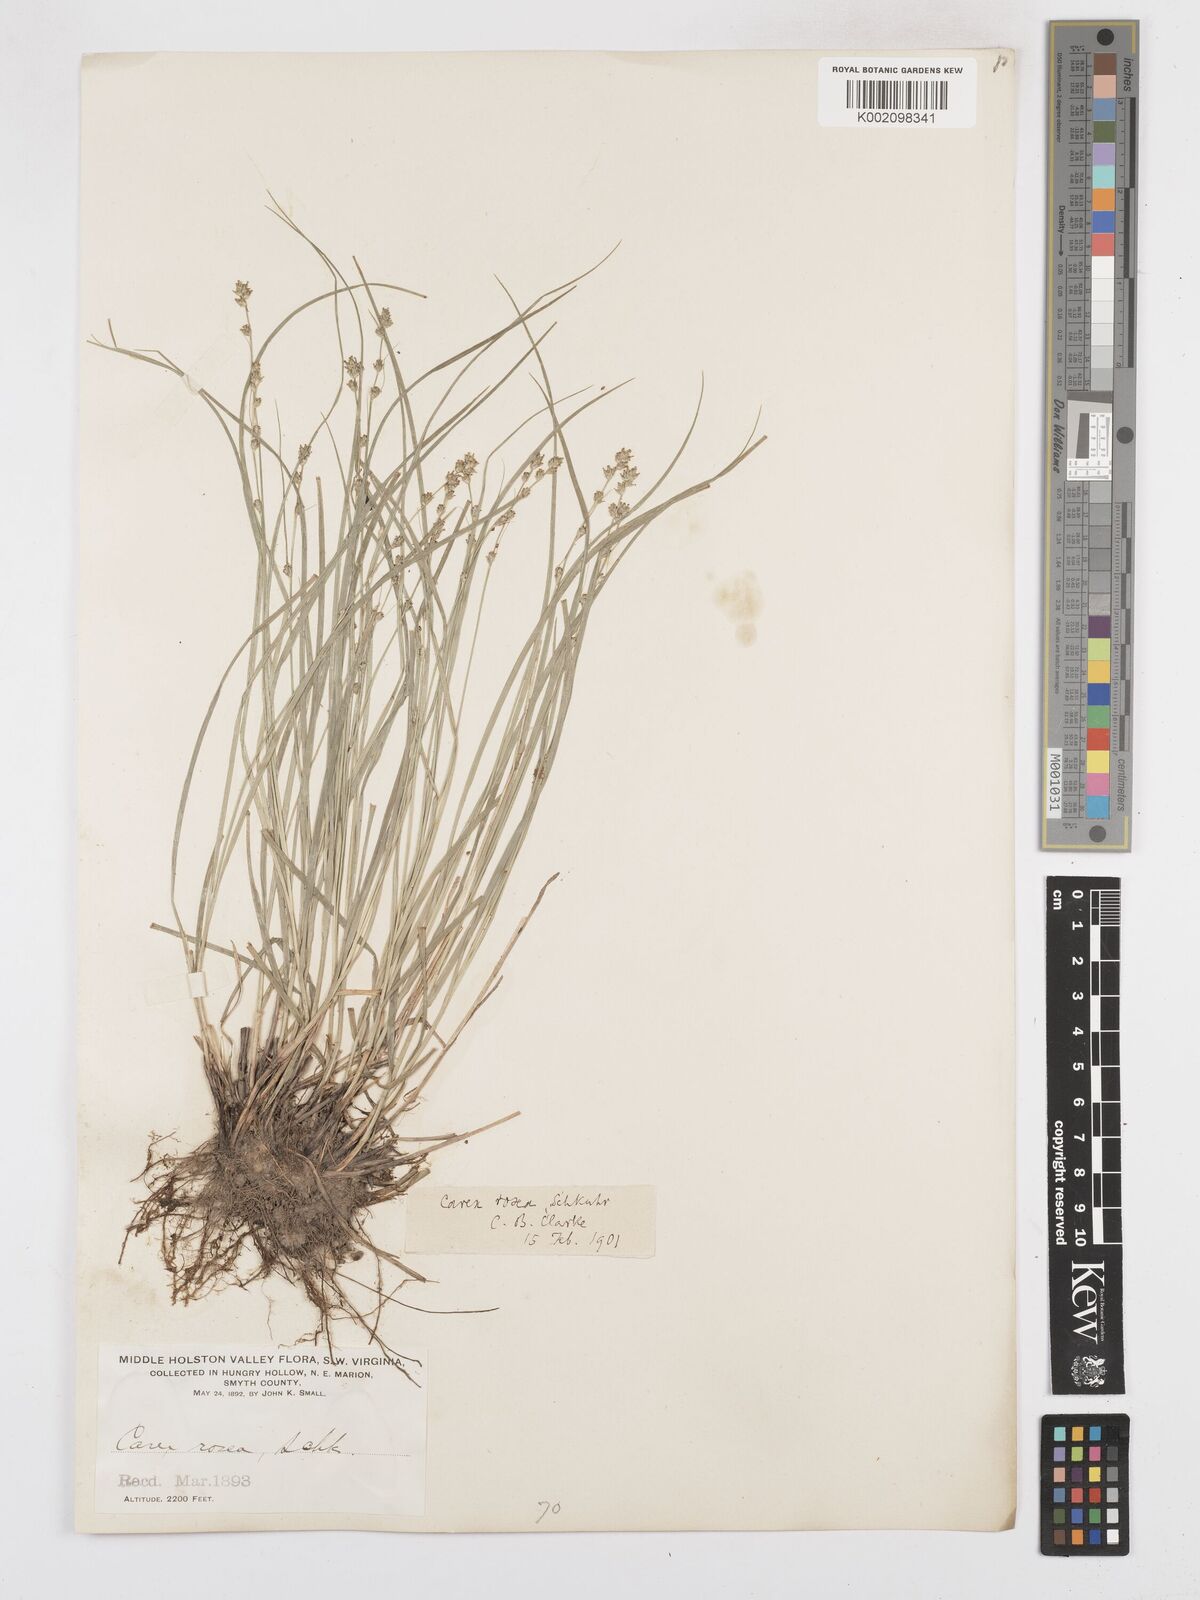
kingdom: Plantae
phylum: Tracheophyta
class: Liliopsida
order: Poales
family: Cyperaceae
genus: Carex
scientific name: Carex rosea
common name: Curly-styled wood sedge
